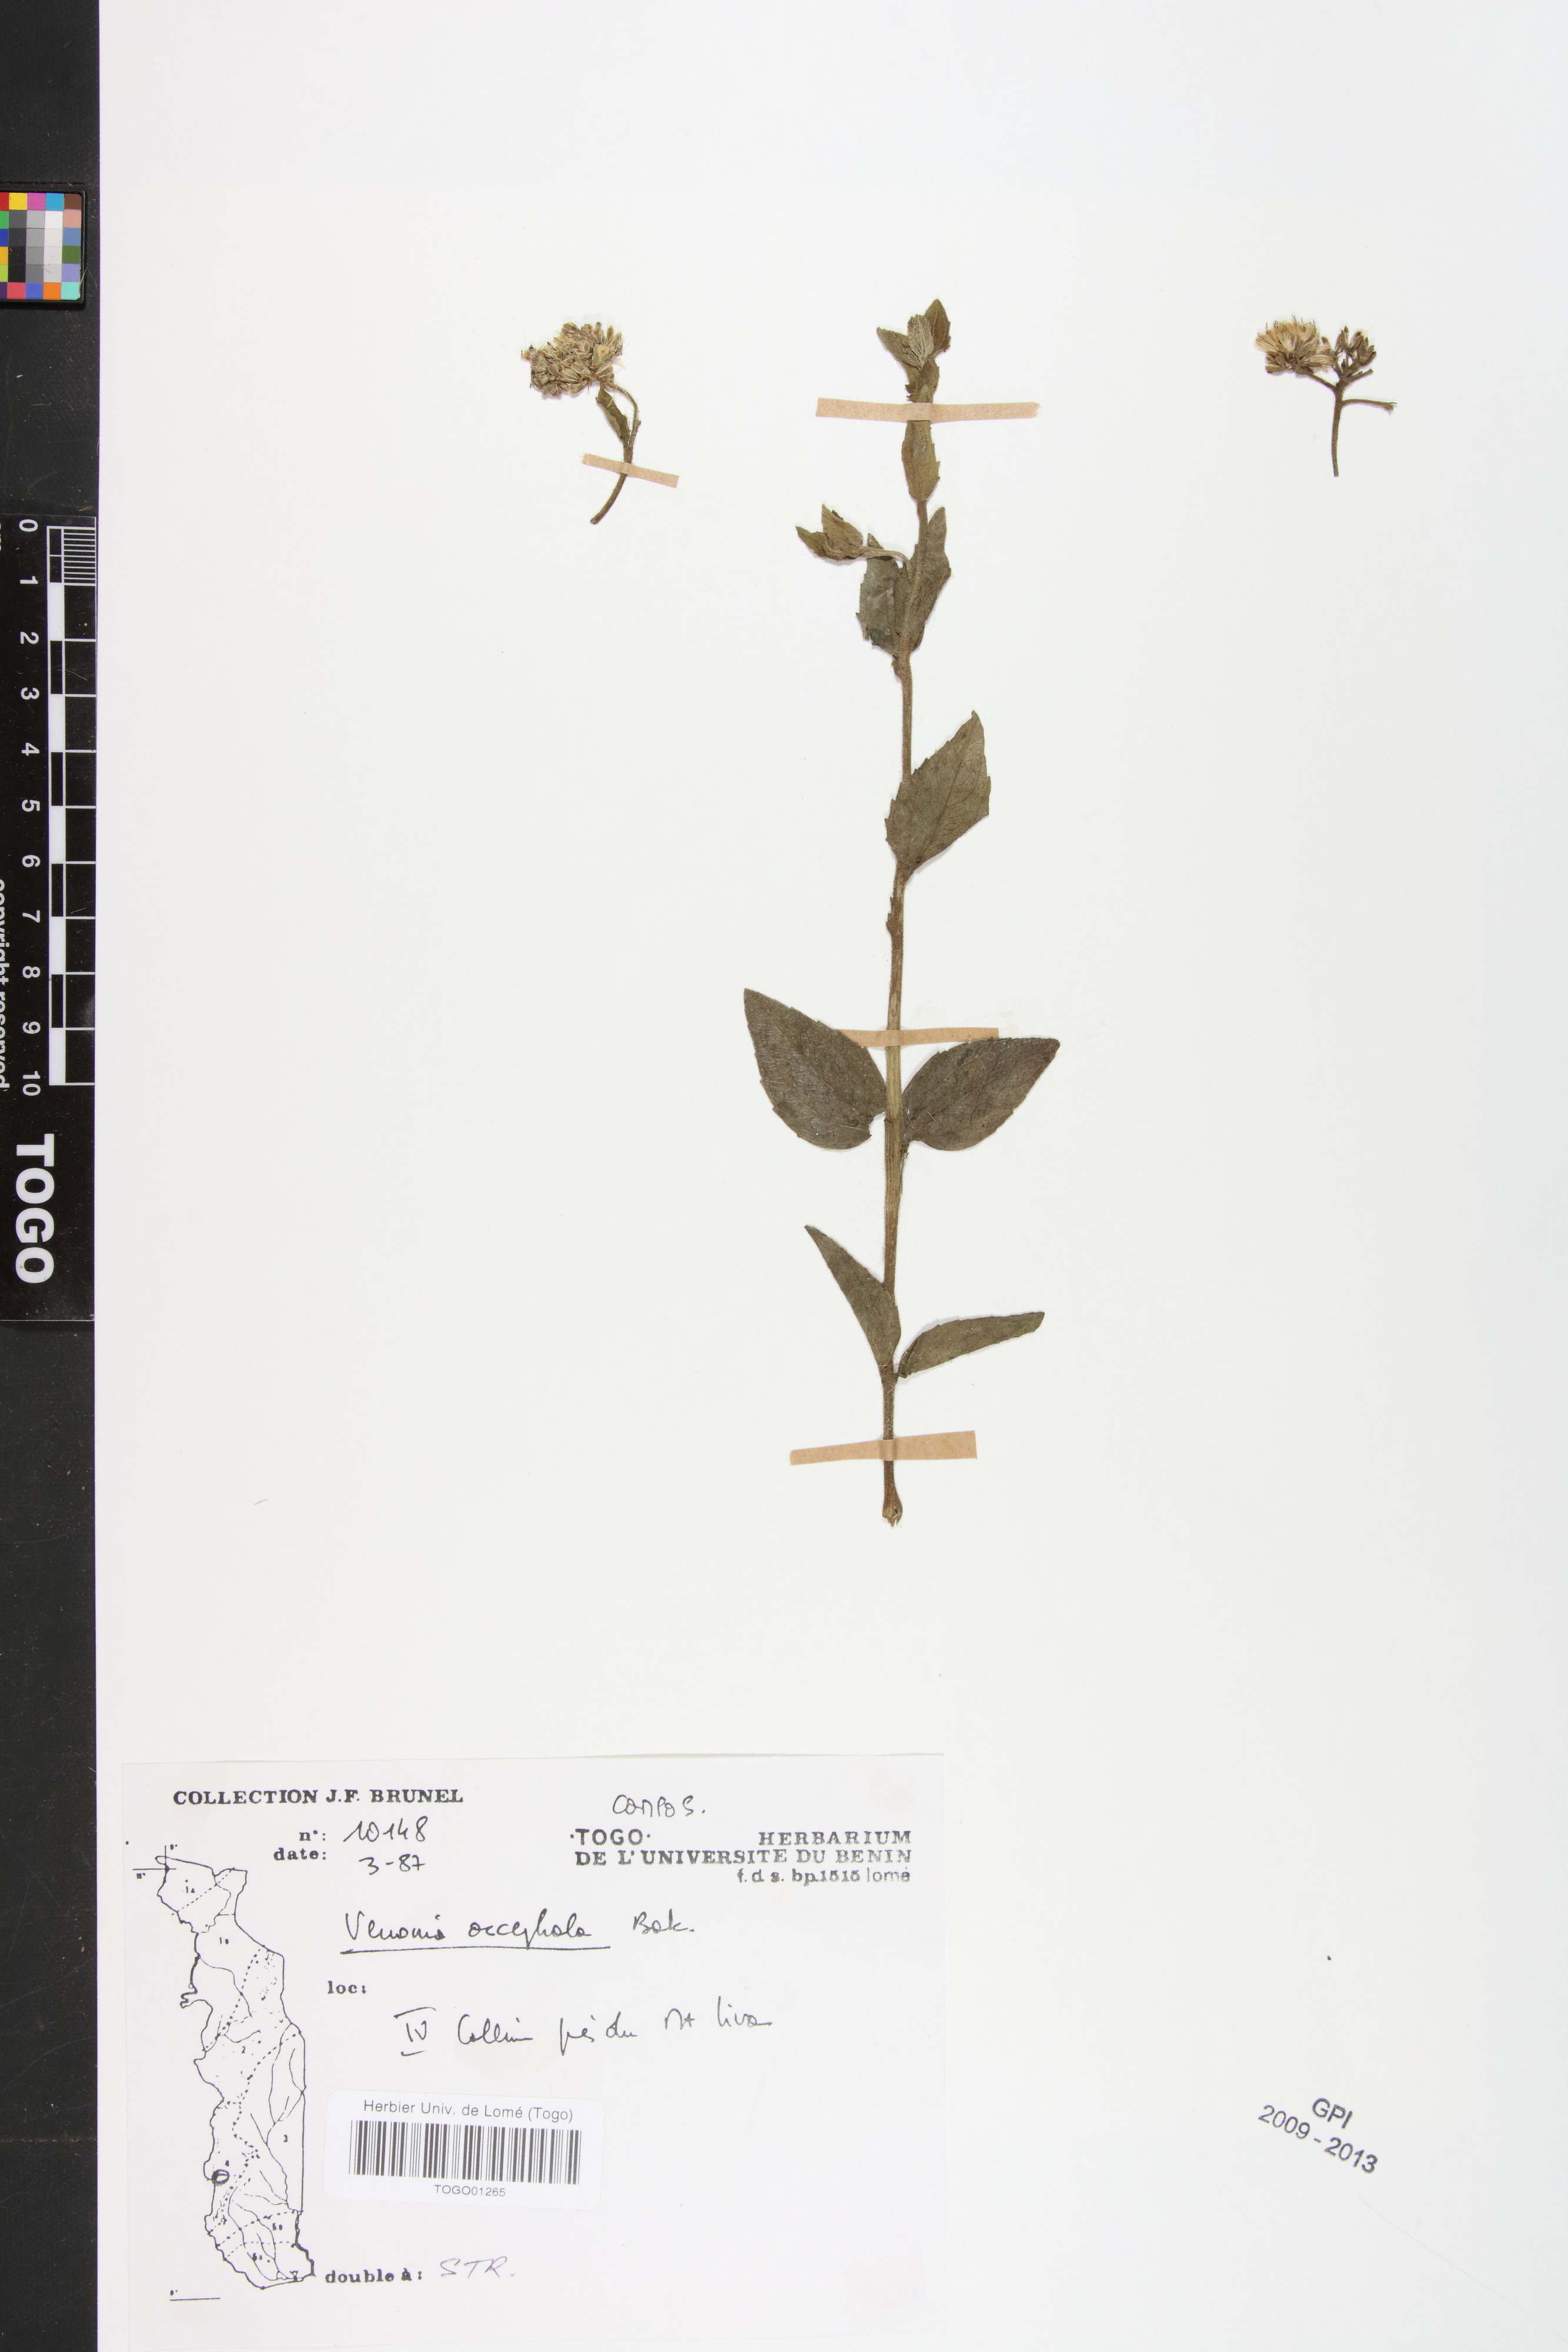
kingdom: Plantae
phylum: Tracheophyta
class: Magnoliopsida
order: Asterales
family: Asteraceae
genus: Oocephala
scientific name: Oocephala stenocephala
